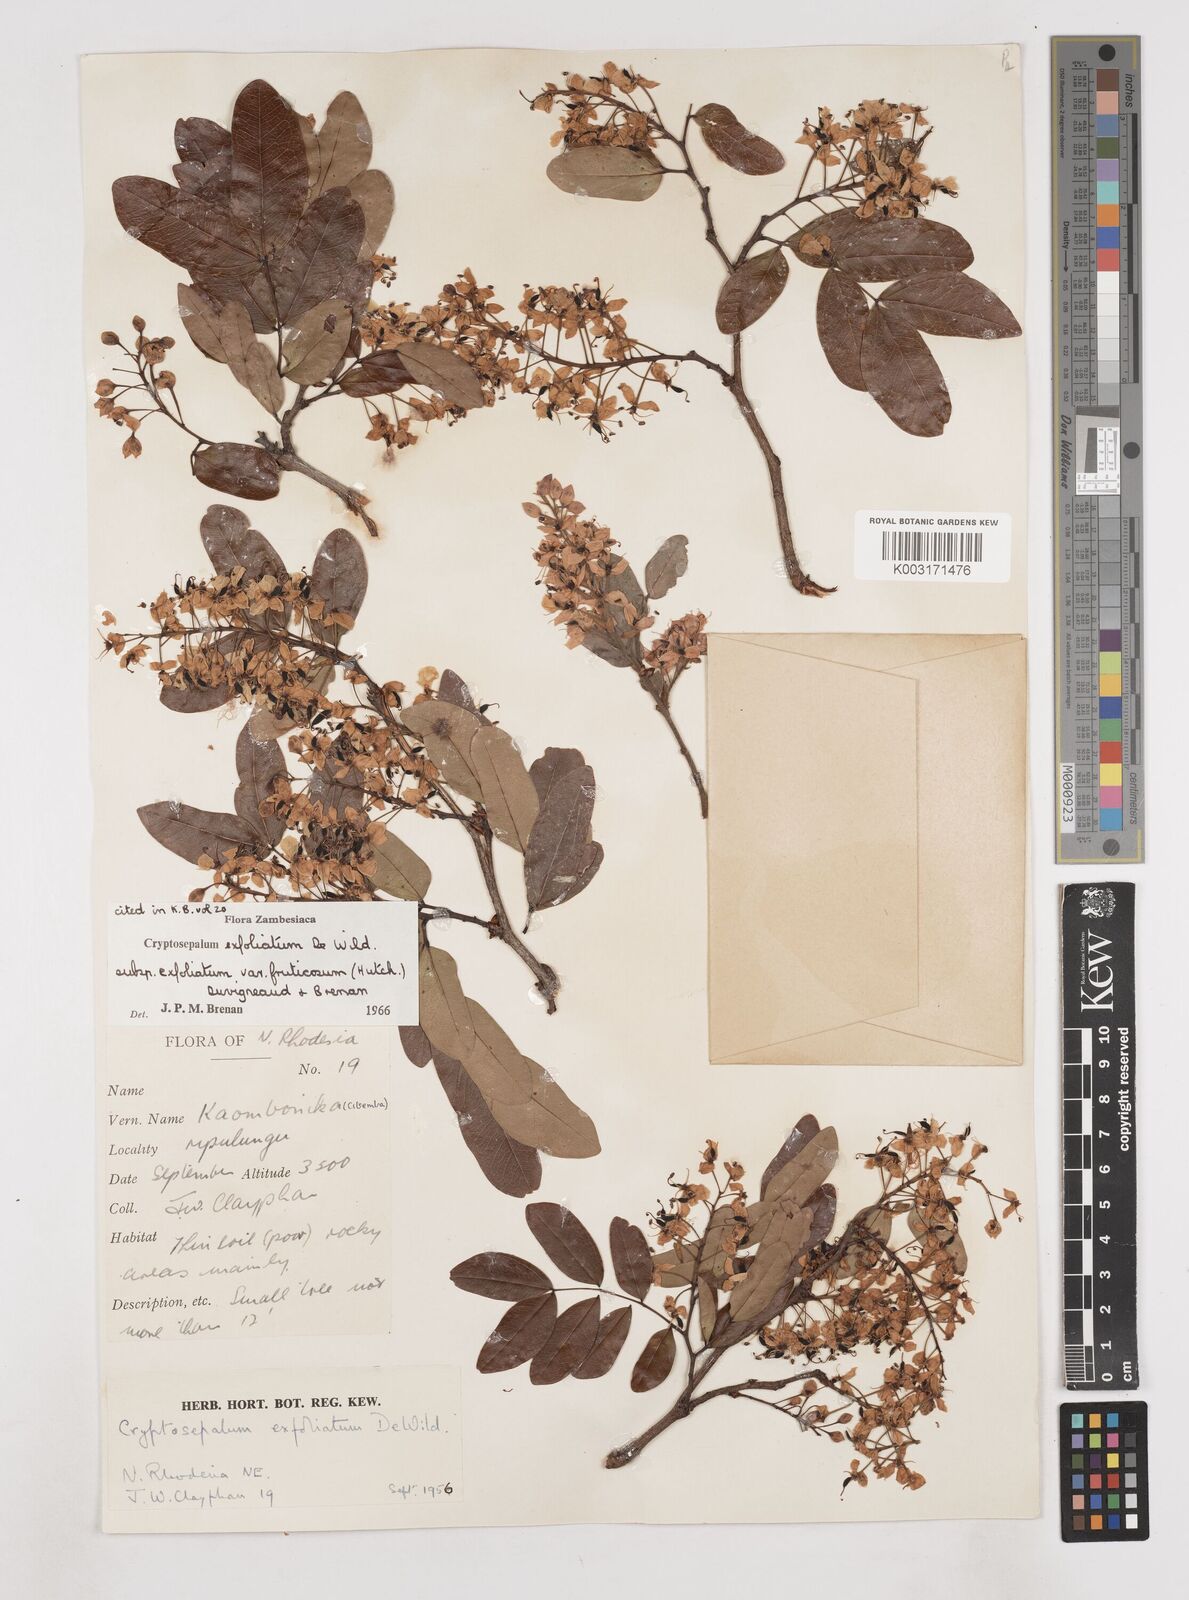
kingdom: Plantae
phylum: Tracheophyta
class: Magnoliopsida
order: Fabales
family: Fabaceae
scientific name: Fabaceae
